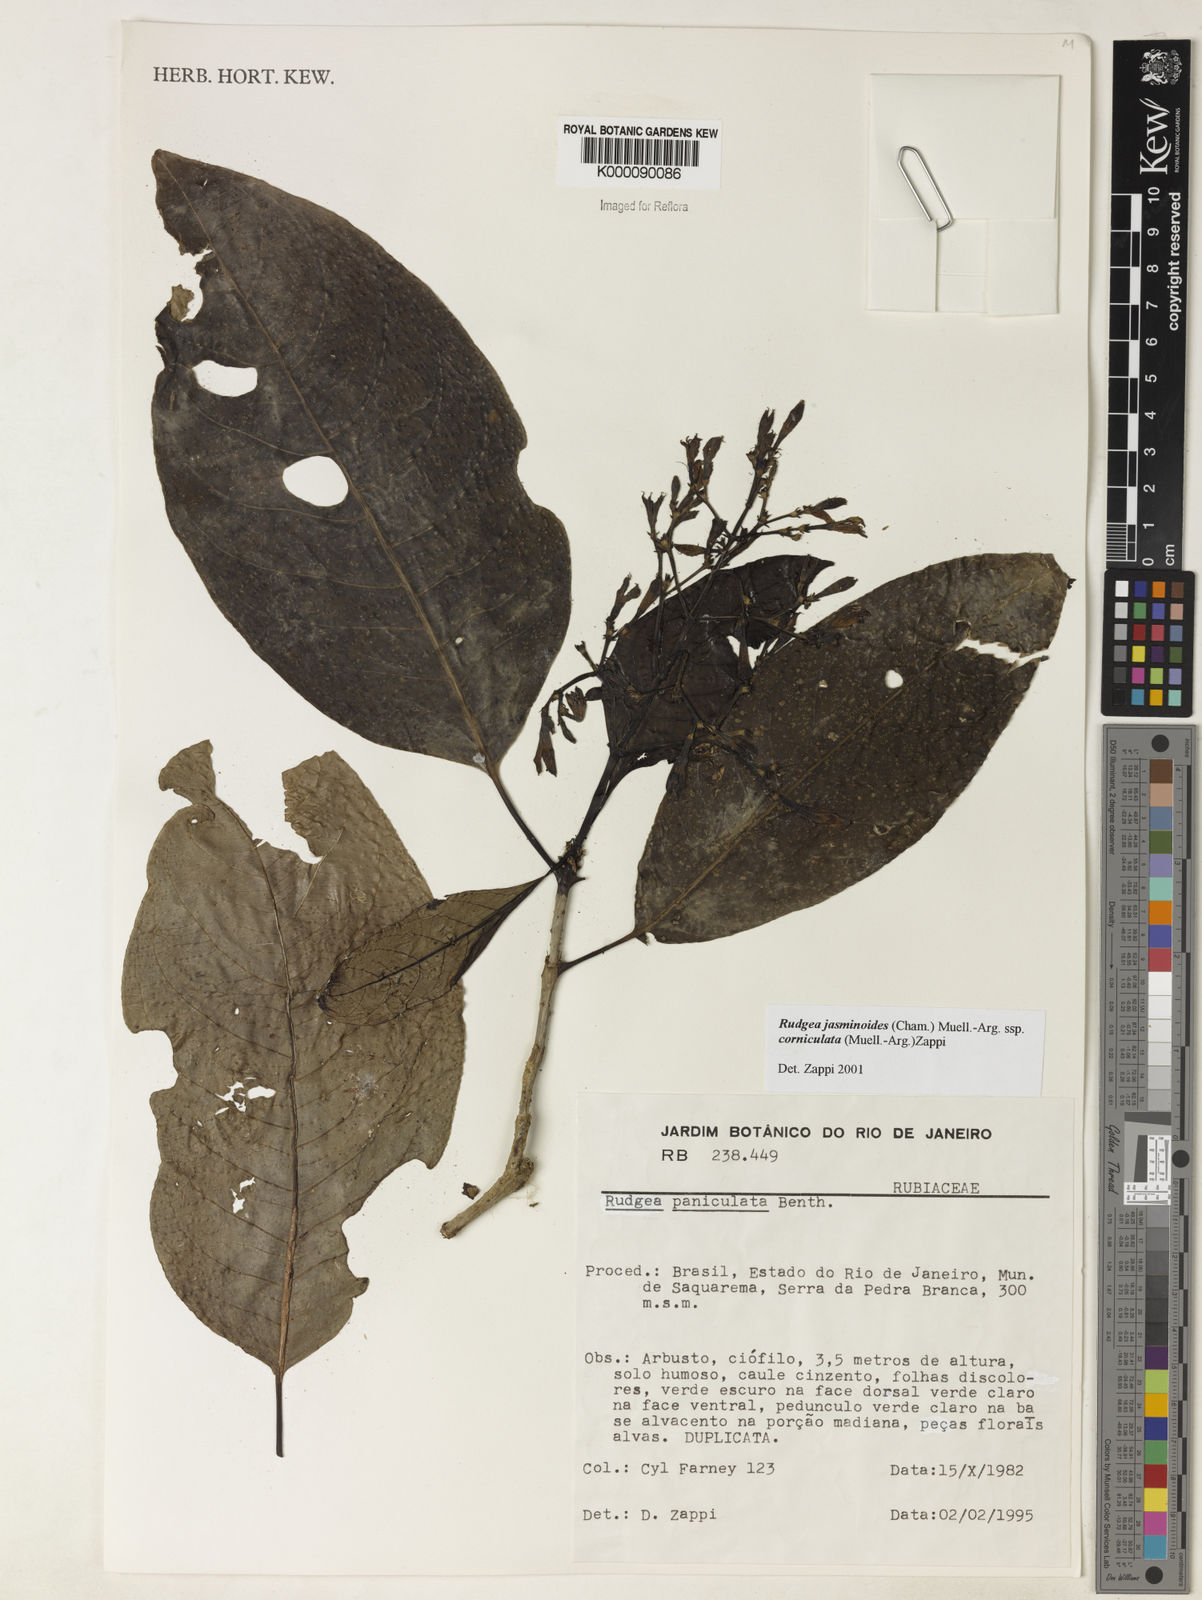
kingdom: Plantae
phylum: Tracheophyta
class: Magnoliopsida
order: Gentianales
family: Rubiaceae
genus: Rudgea
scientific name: Rudgea jasminoides
